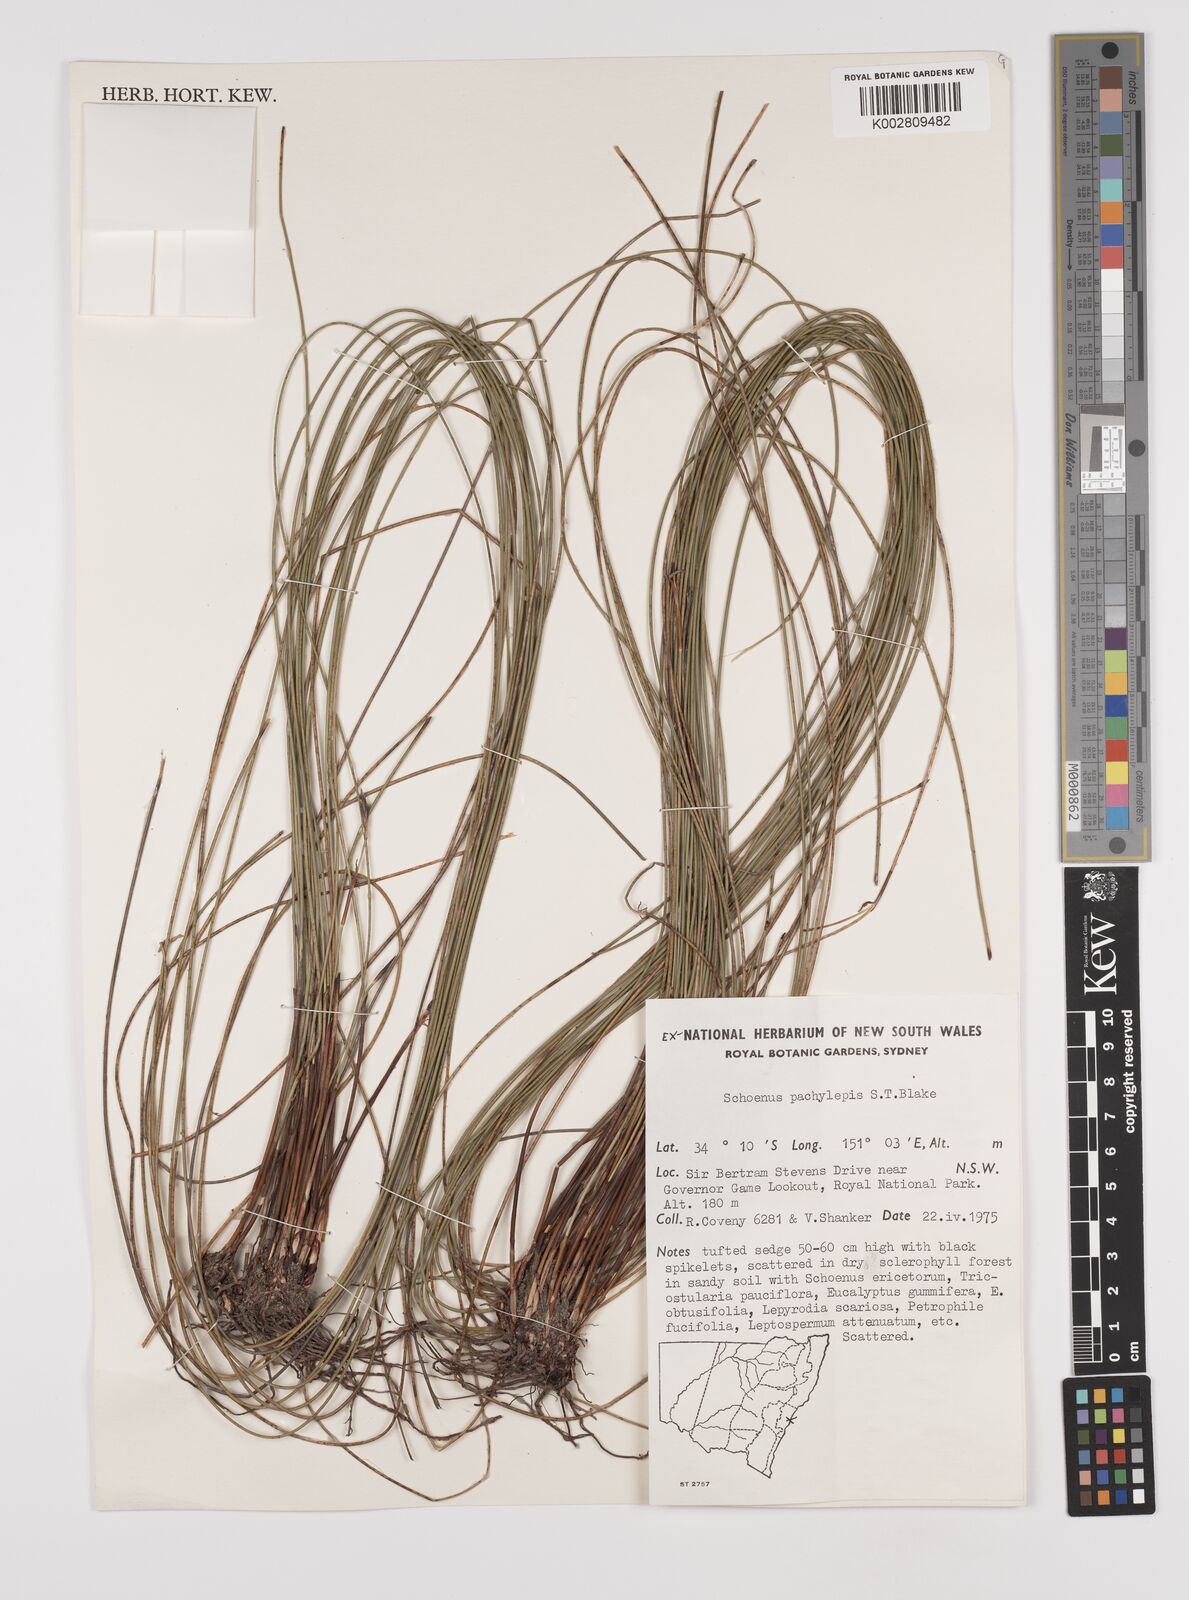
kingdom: Plantae
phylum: Tracheophyta
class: Liliopsida
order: Poales
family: Cyperaceae
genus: Schoenus
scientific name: Schoenus lepidosperma
